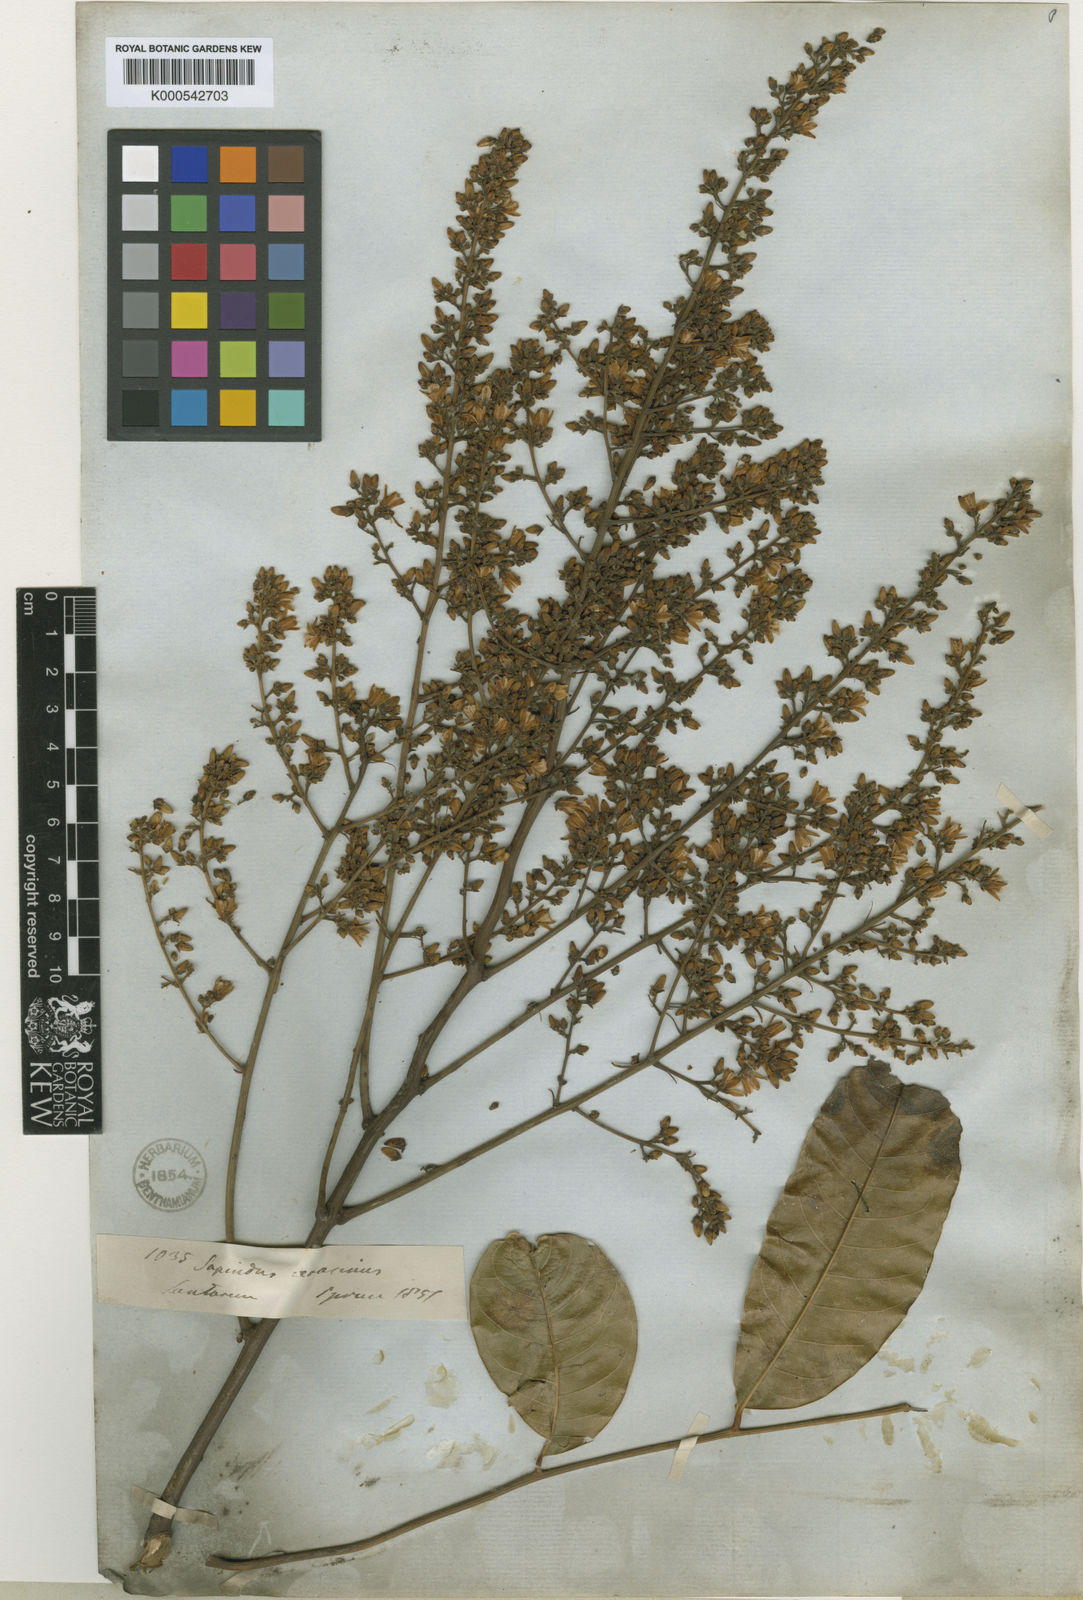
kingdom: Plantae
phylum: Tracheophyta
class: Magnoliopsida
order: Sapindales
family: Sapindaceae
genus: Talisia
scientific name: Talisia cerasina
